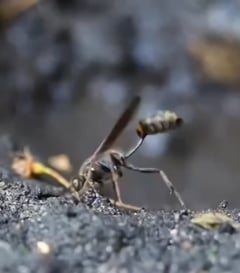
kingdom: Animalia
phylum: Arthropoda
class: Insecta
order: Hymenoptera
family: Sphecidae
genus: Sceliphron
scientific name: Sceliphron curvatum
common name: Pèlopèe
